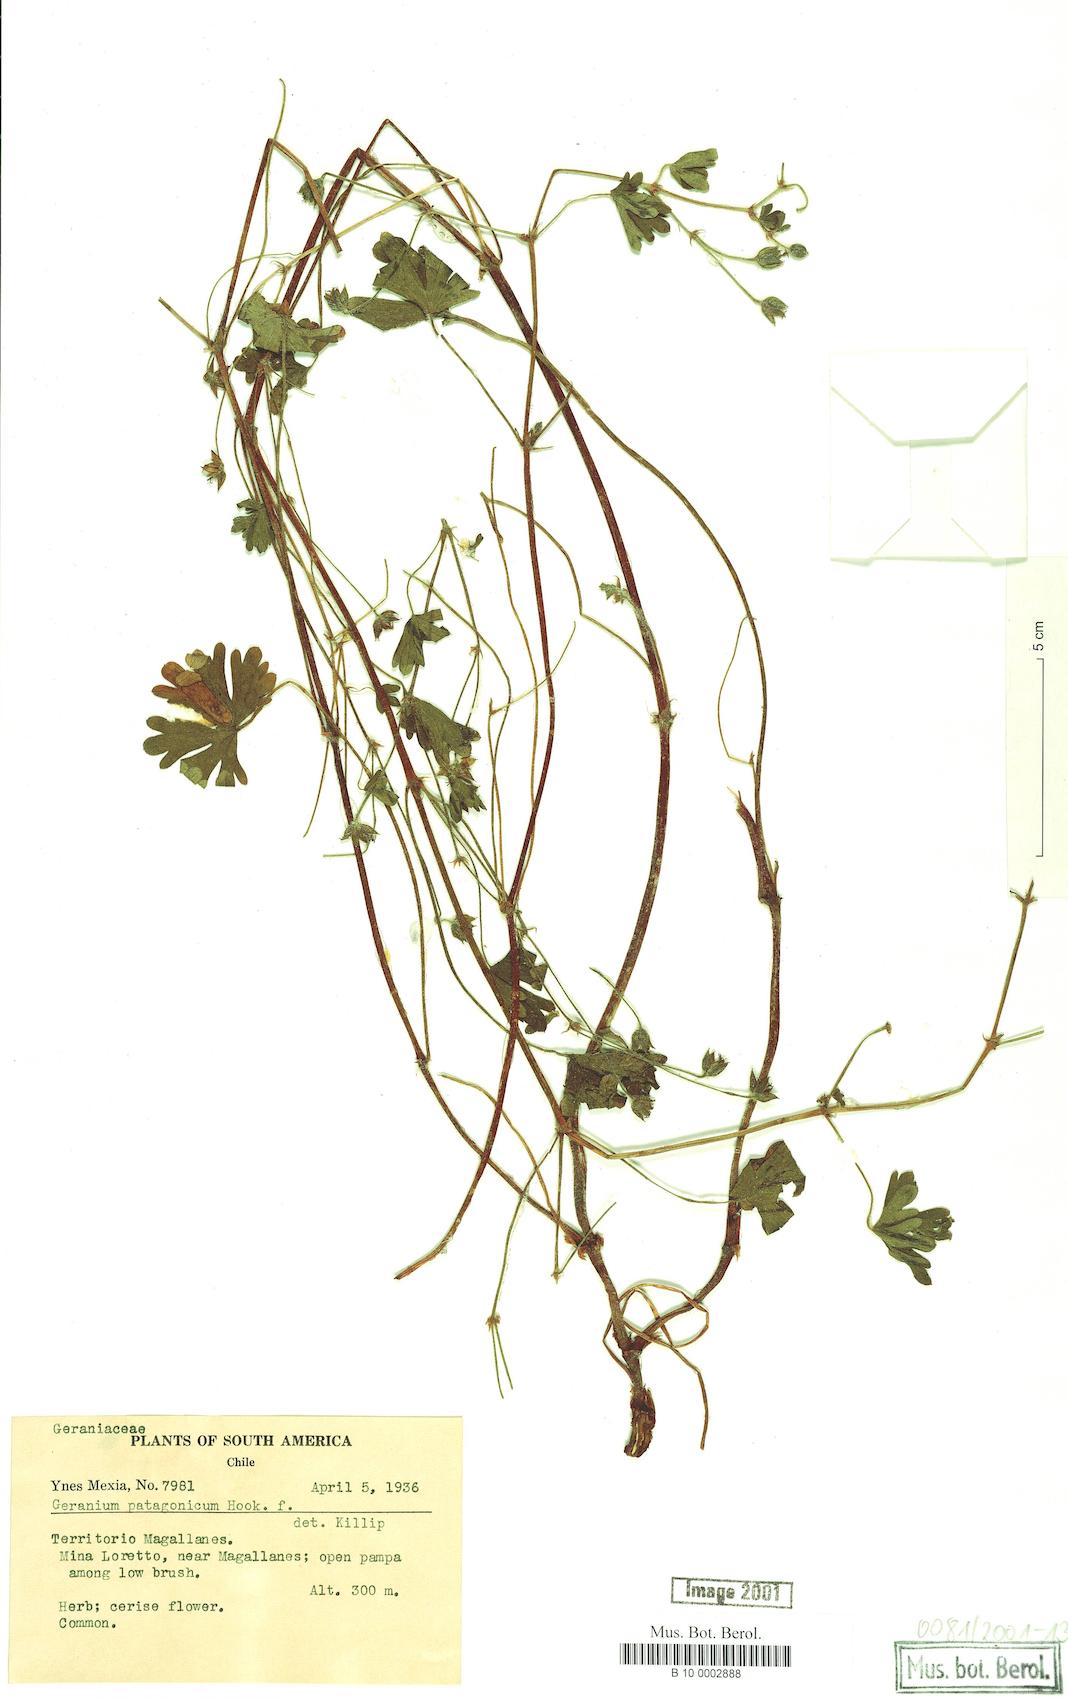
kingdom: Plantae
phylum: Tracheophyta
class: Magnoliopsida
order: Geraniales
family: Geraniaceae
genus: Geranium
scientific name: Geranium berteroanum
